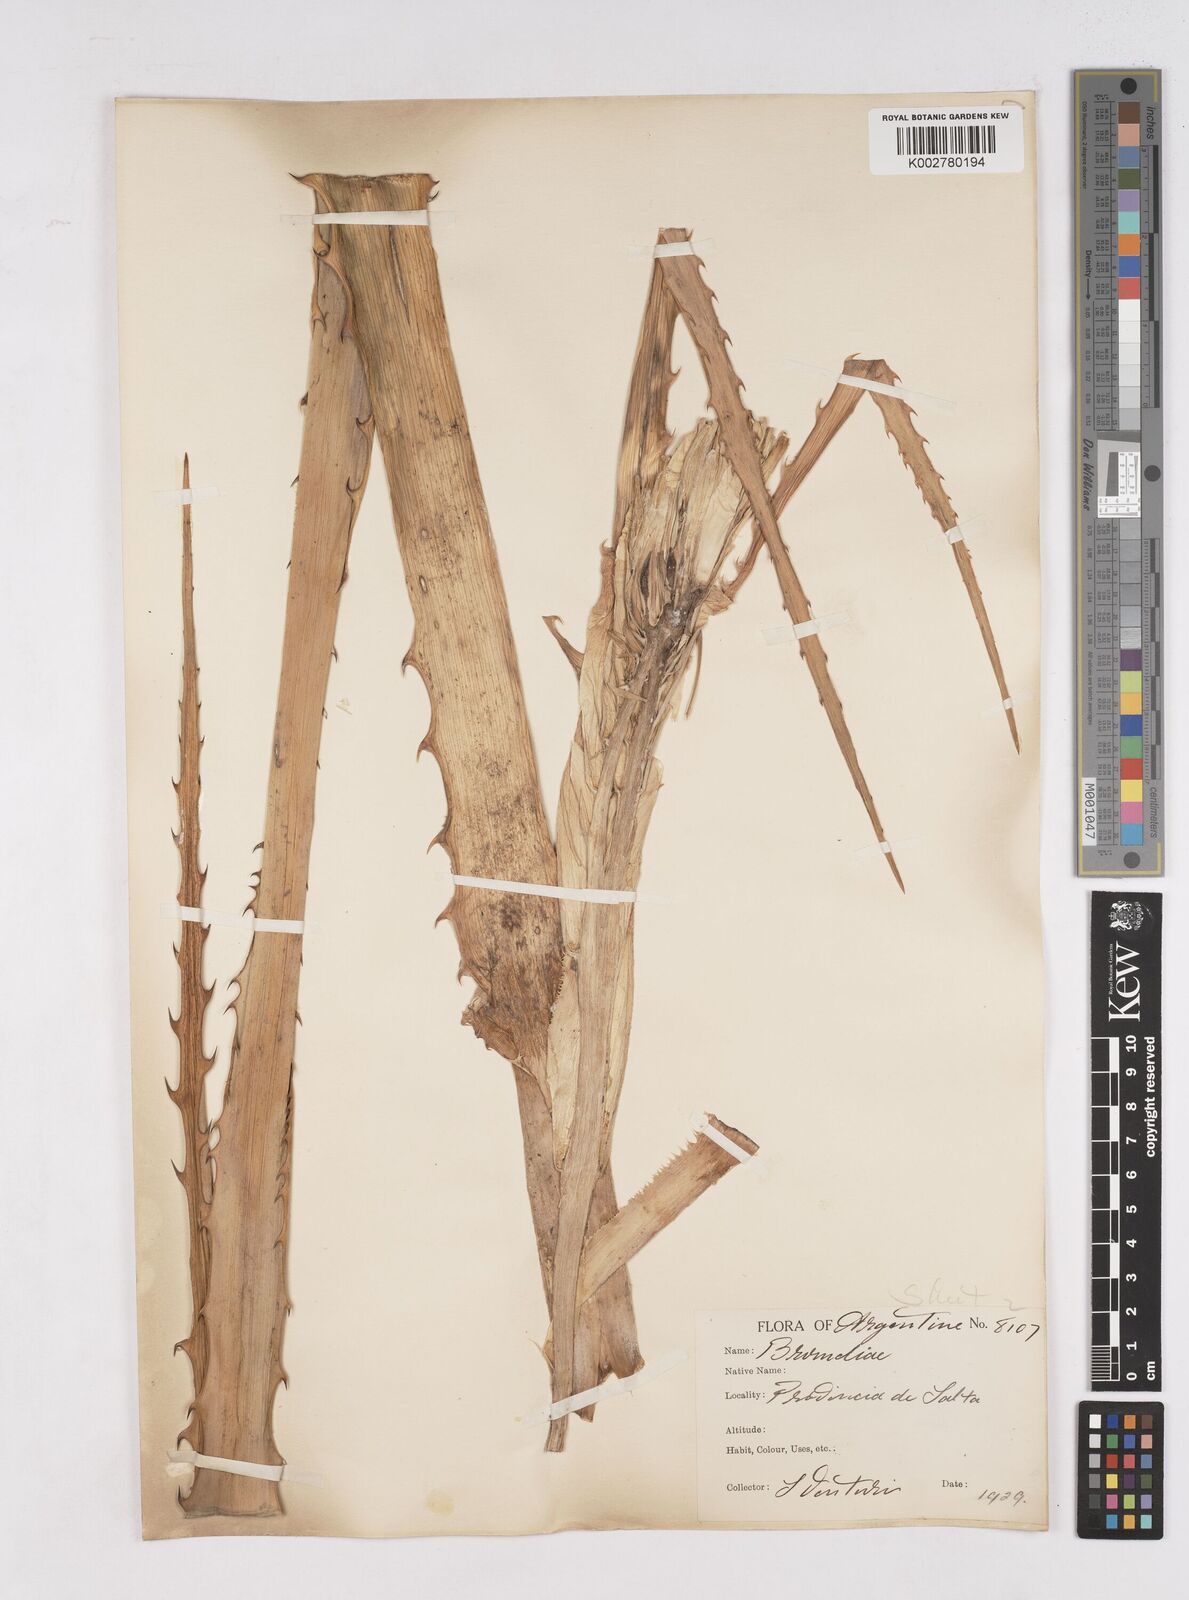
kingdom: Plantae
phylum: Tracheophyta
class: Liliopsida
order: Poales
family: Bromeliaceae
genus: Bromelia
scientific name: Bromelia
